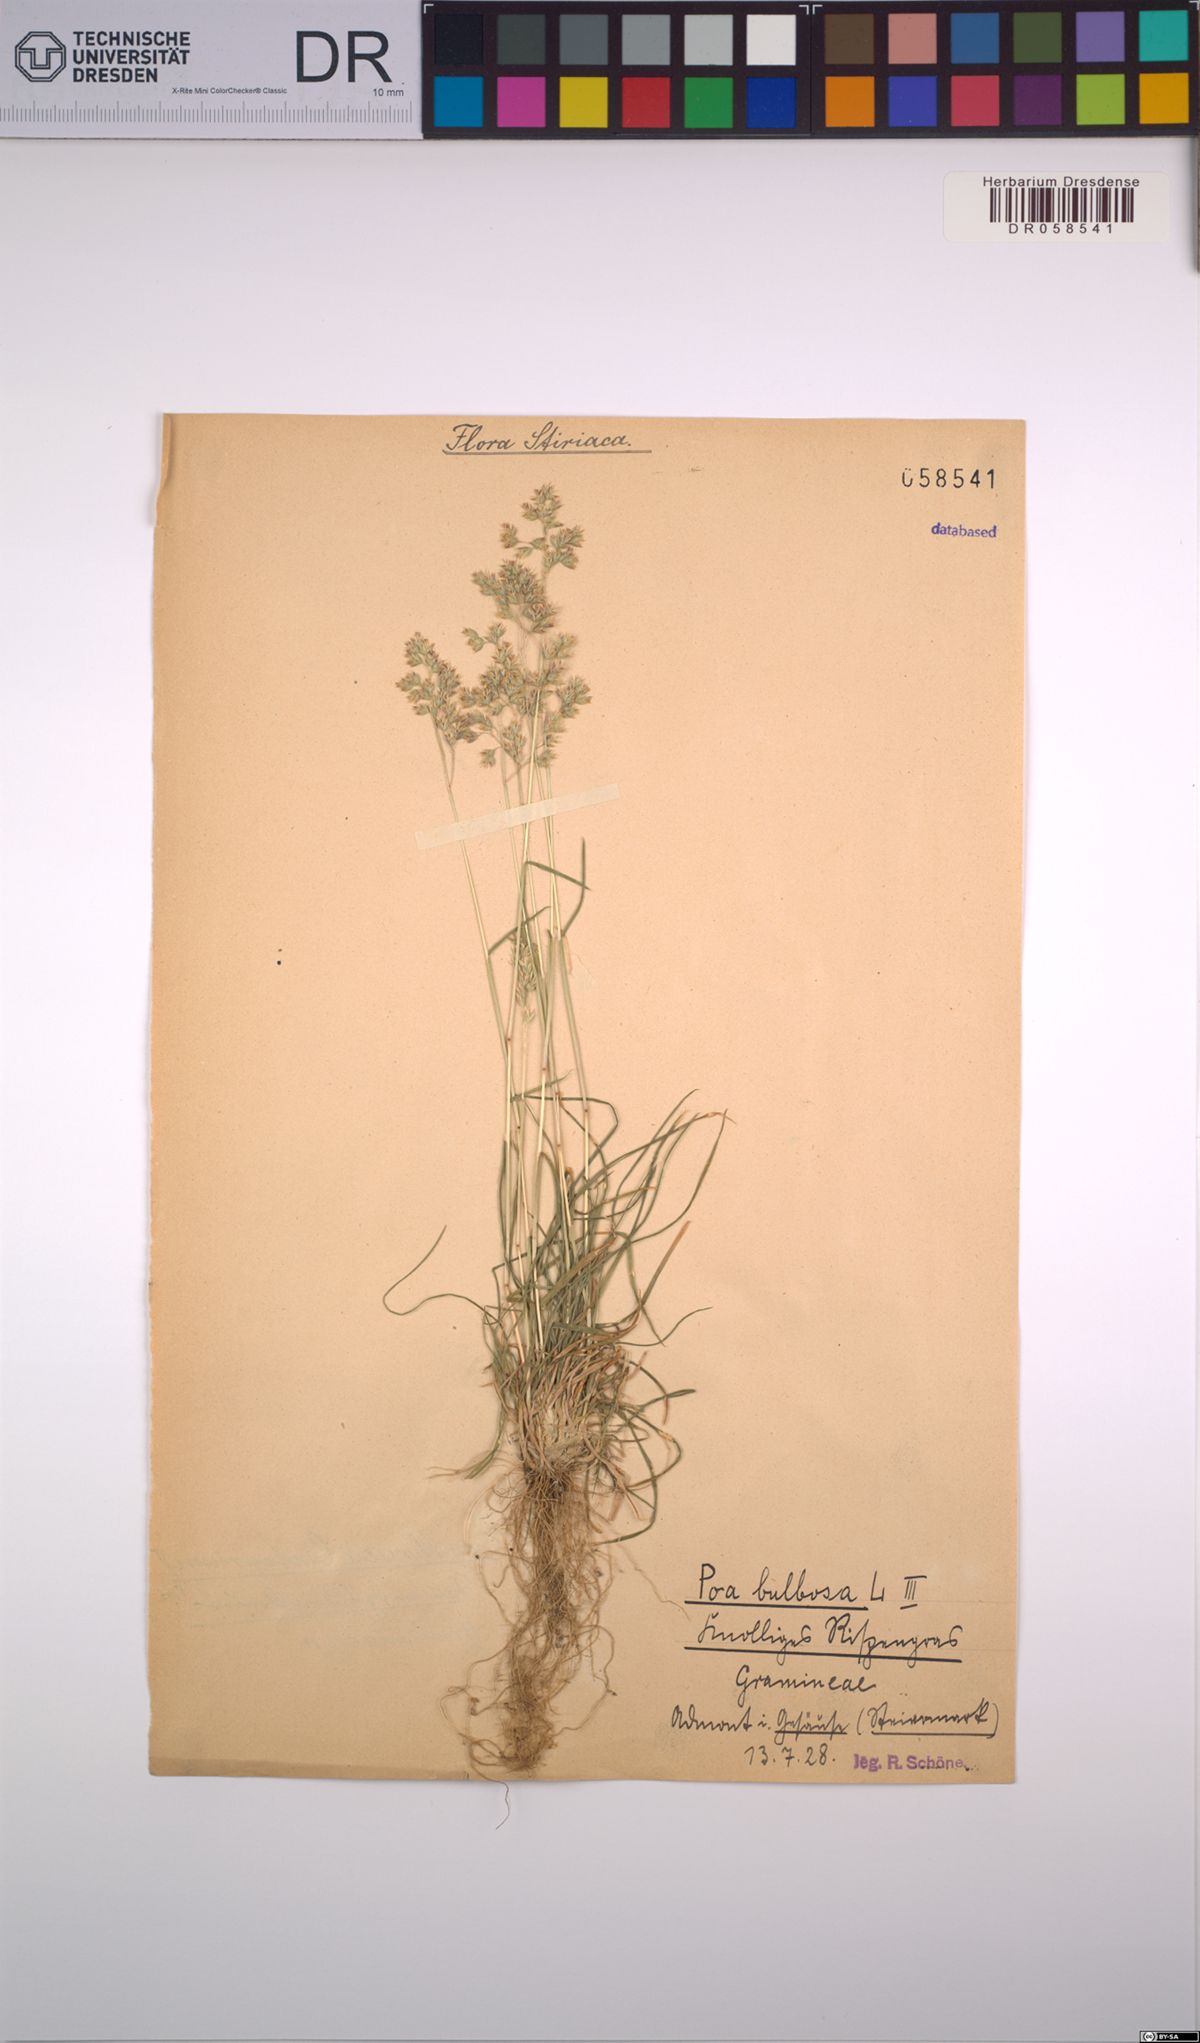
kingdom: Plantae
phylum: Tracheophyta
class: Liliopsida
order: Poales
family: Poaceae
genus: Poa
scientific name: Poa bulbosa
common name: Bulbous bluegrass
